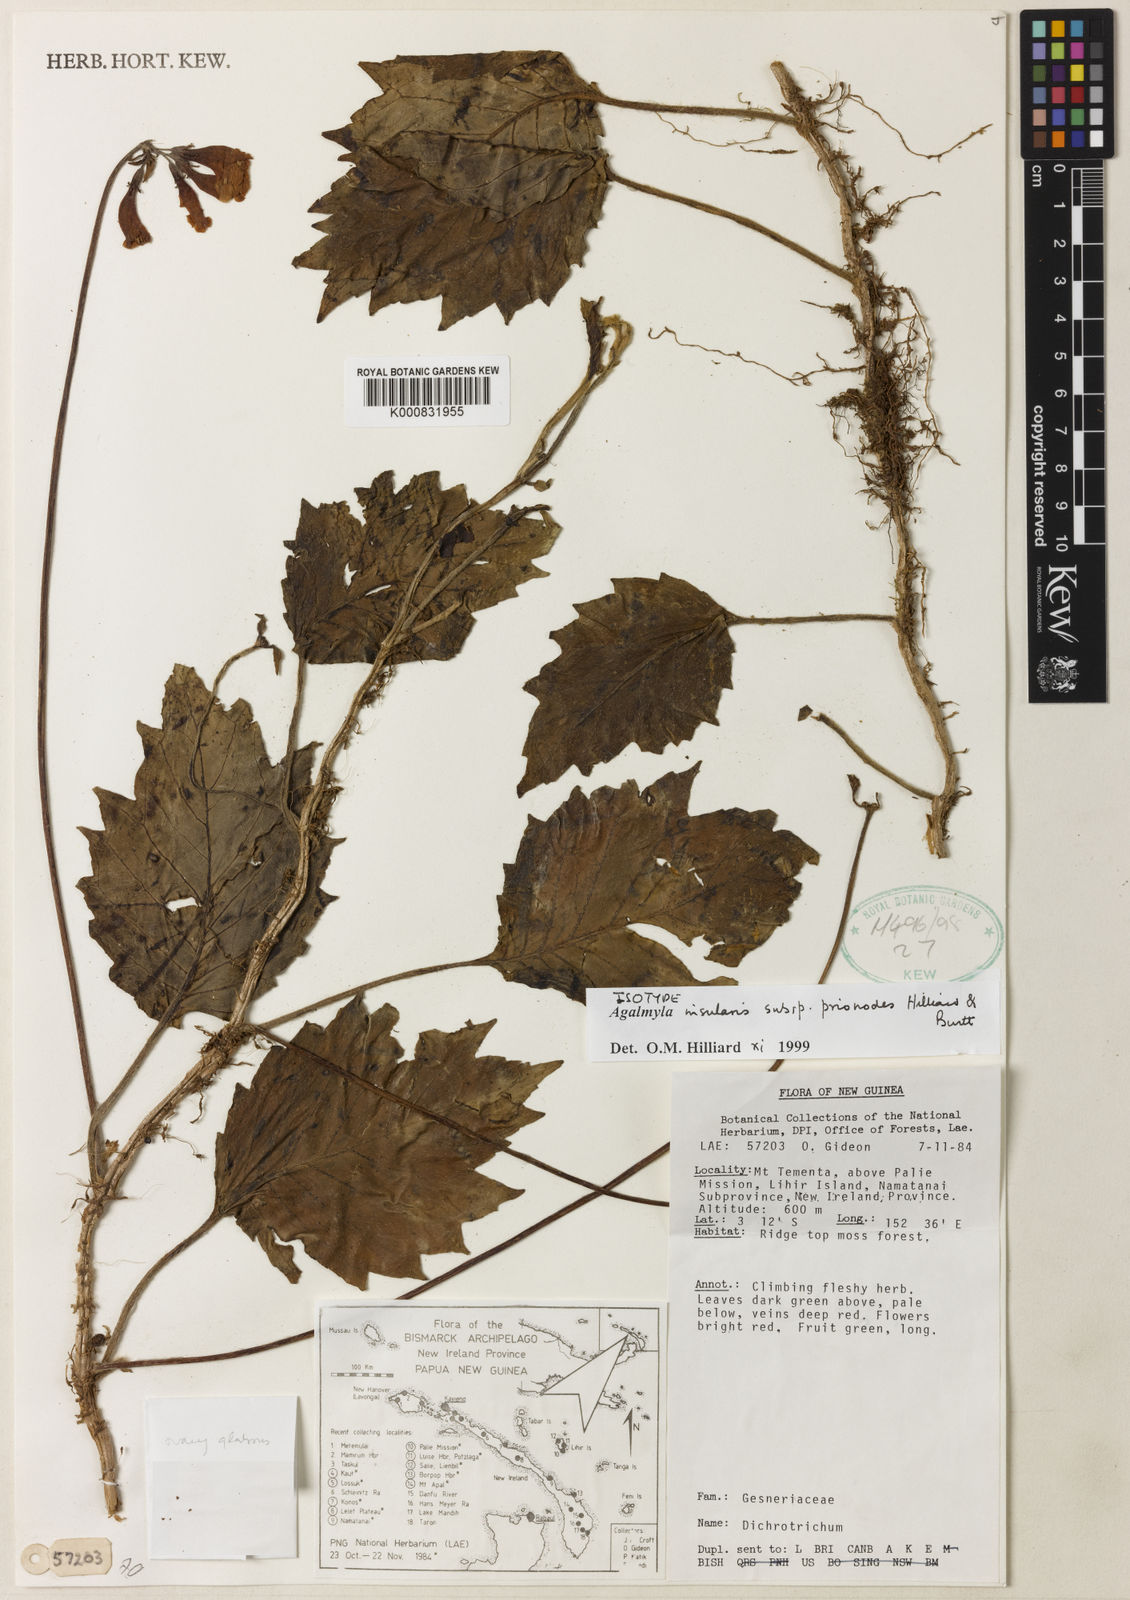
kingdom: Plantae
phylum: Tracheophyta
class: Magnoliopsida
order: Lamiales
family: Gesneriaceae
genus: Agalmyla
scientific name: Agalmyla insularis
